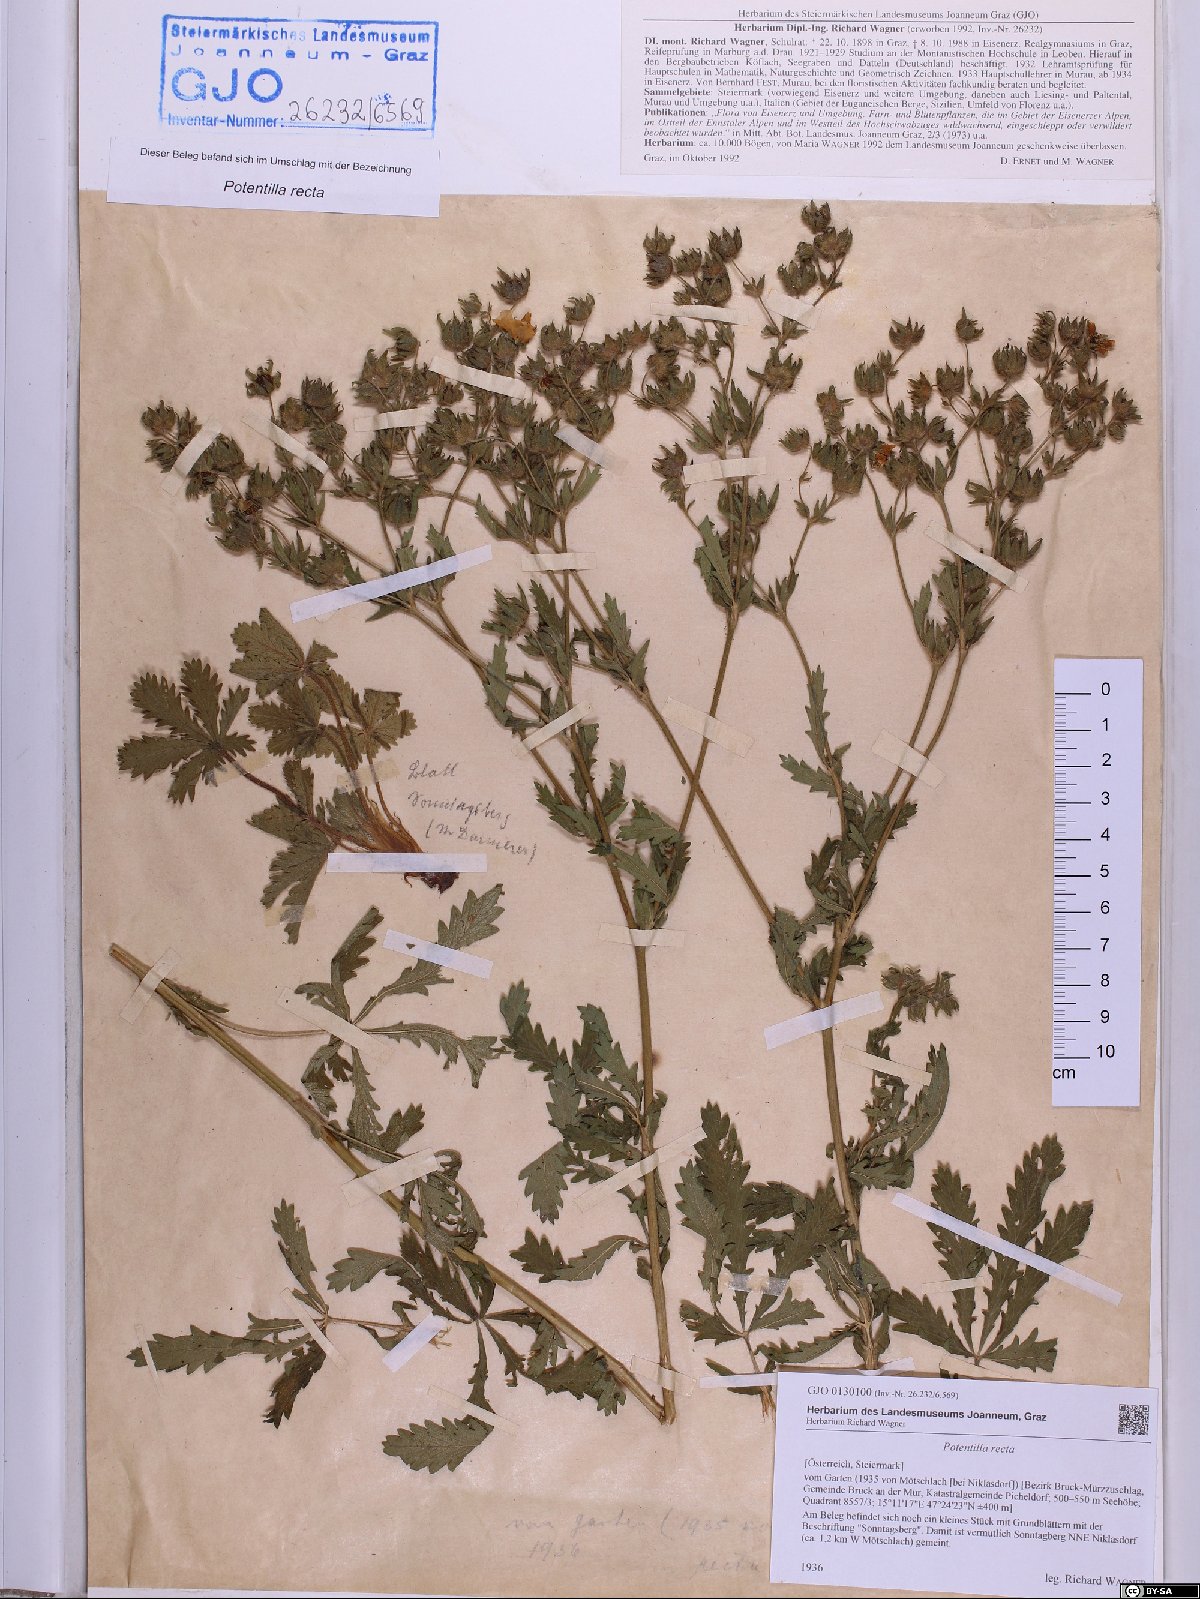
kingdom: Plantae
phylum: Tracheophyta
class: Magnoliopsida
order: Rosales
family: Rosaceae
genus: Potentilla
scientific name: Potentilla recta
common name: Sulphur cinquefoil
